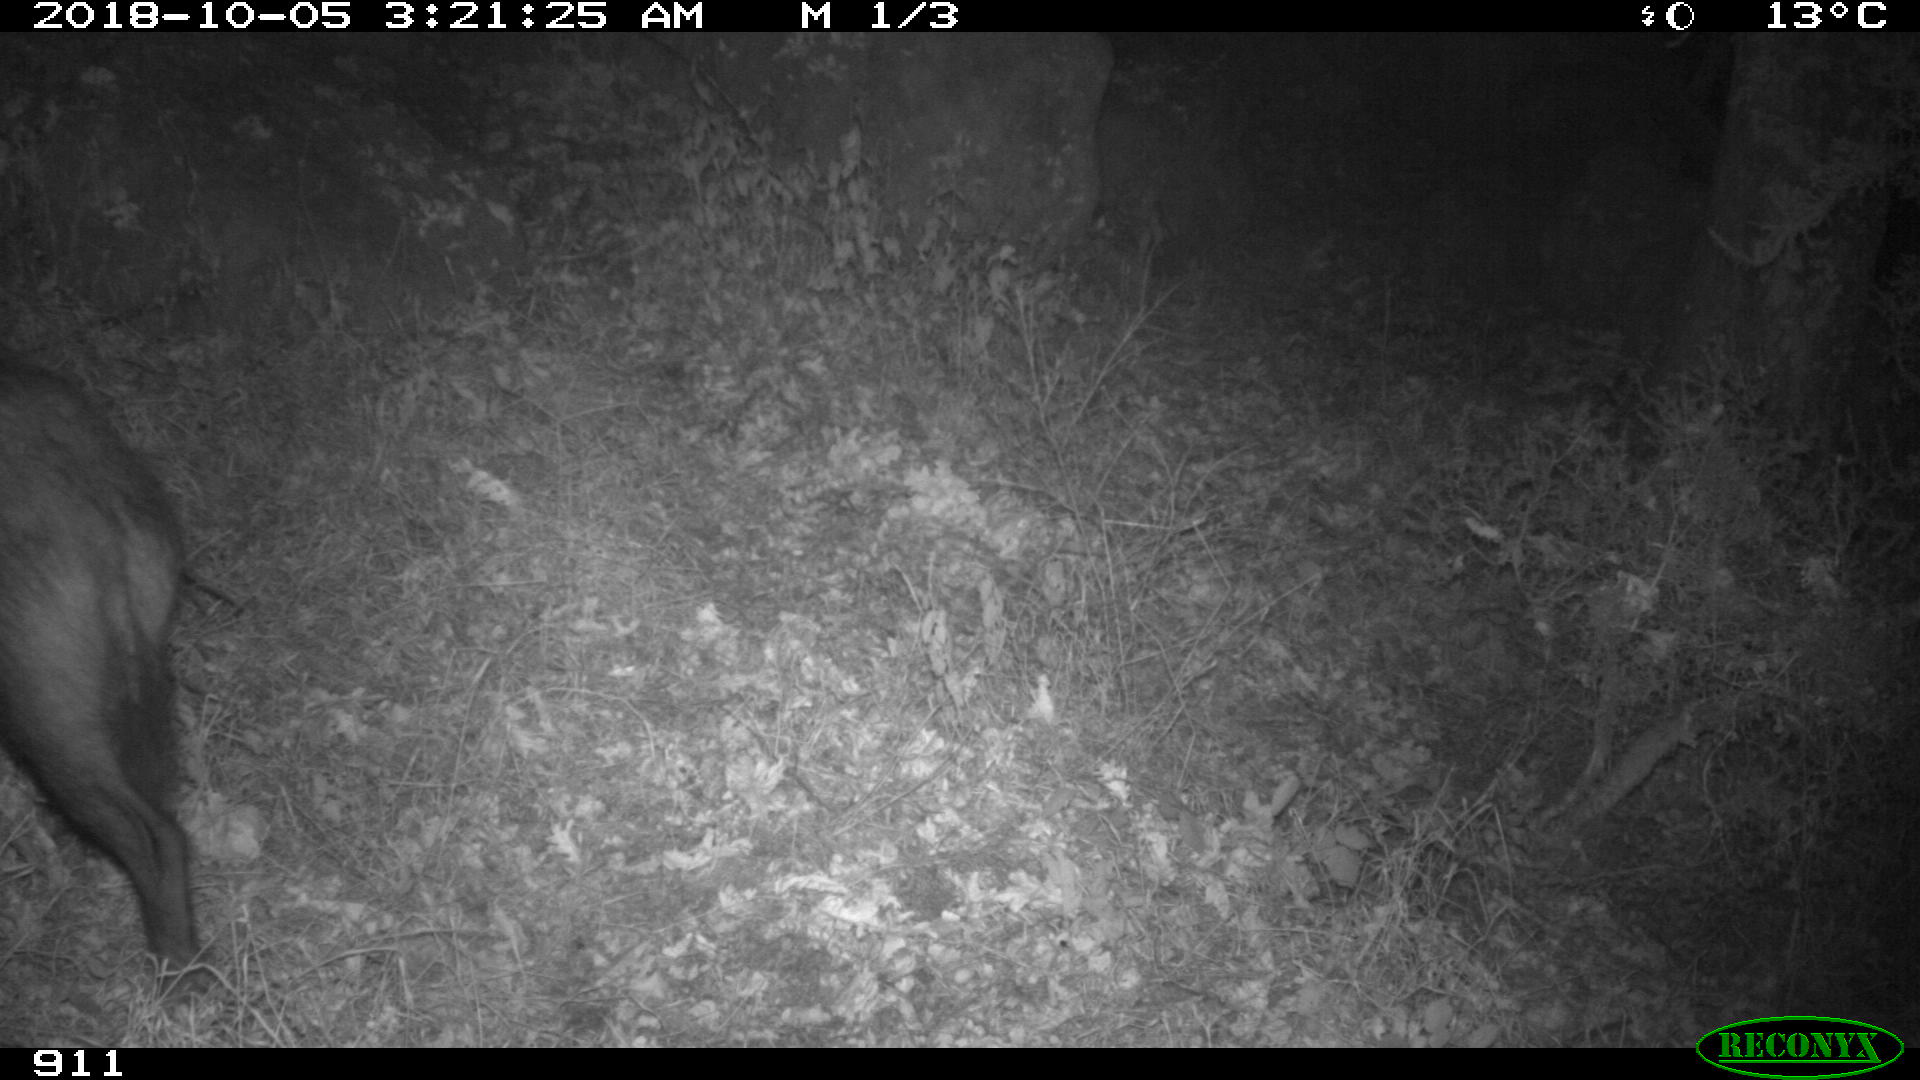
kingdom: Animalia
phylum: Chordata
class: Mammalia
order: Artiodactyla
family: Suidae
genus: Sus
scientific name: Sus scrofa
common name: Wild boar
